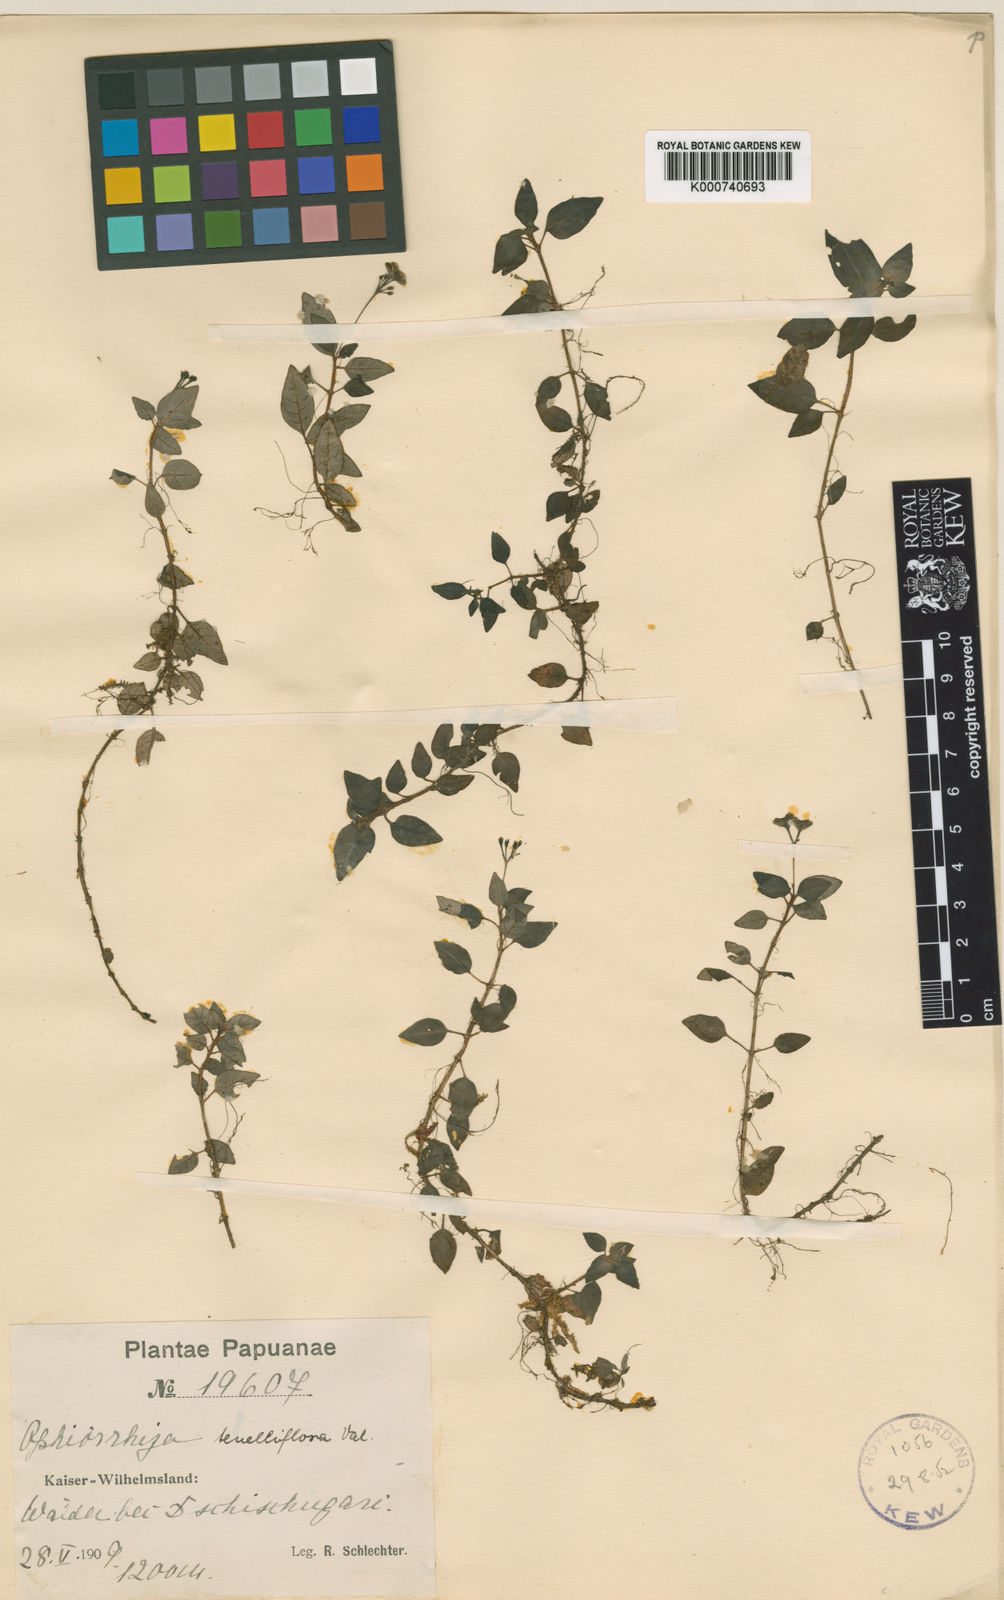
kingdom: Plantae
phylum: Tracheophyta
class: Magnoliopsida
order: Gentianales
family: Rubiaceae
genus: Ophiorrhiza
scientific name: Ophiorrhiza tenelliflora
